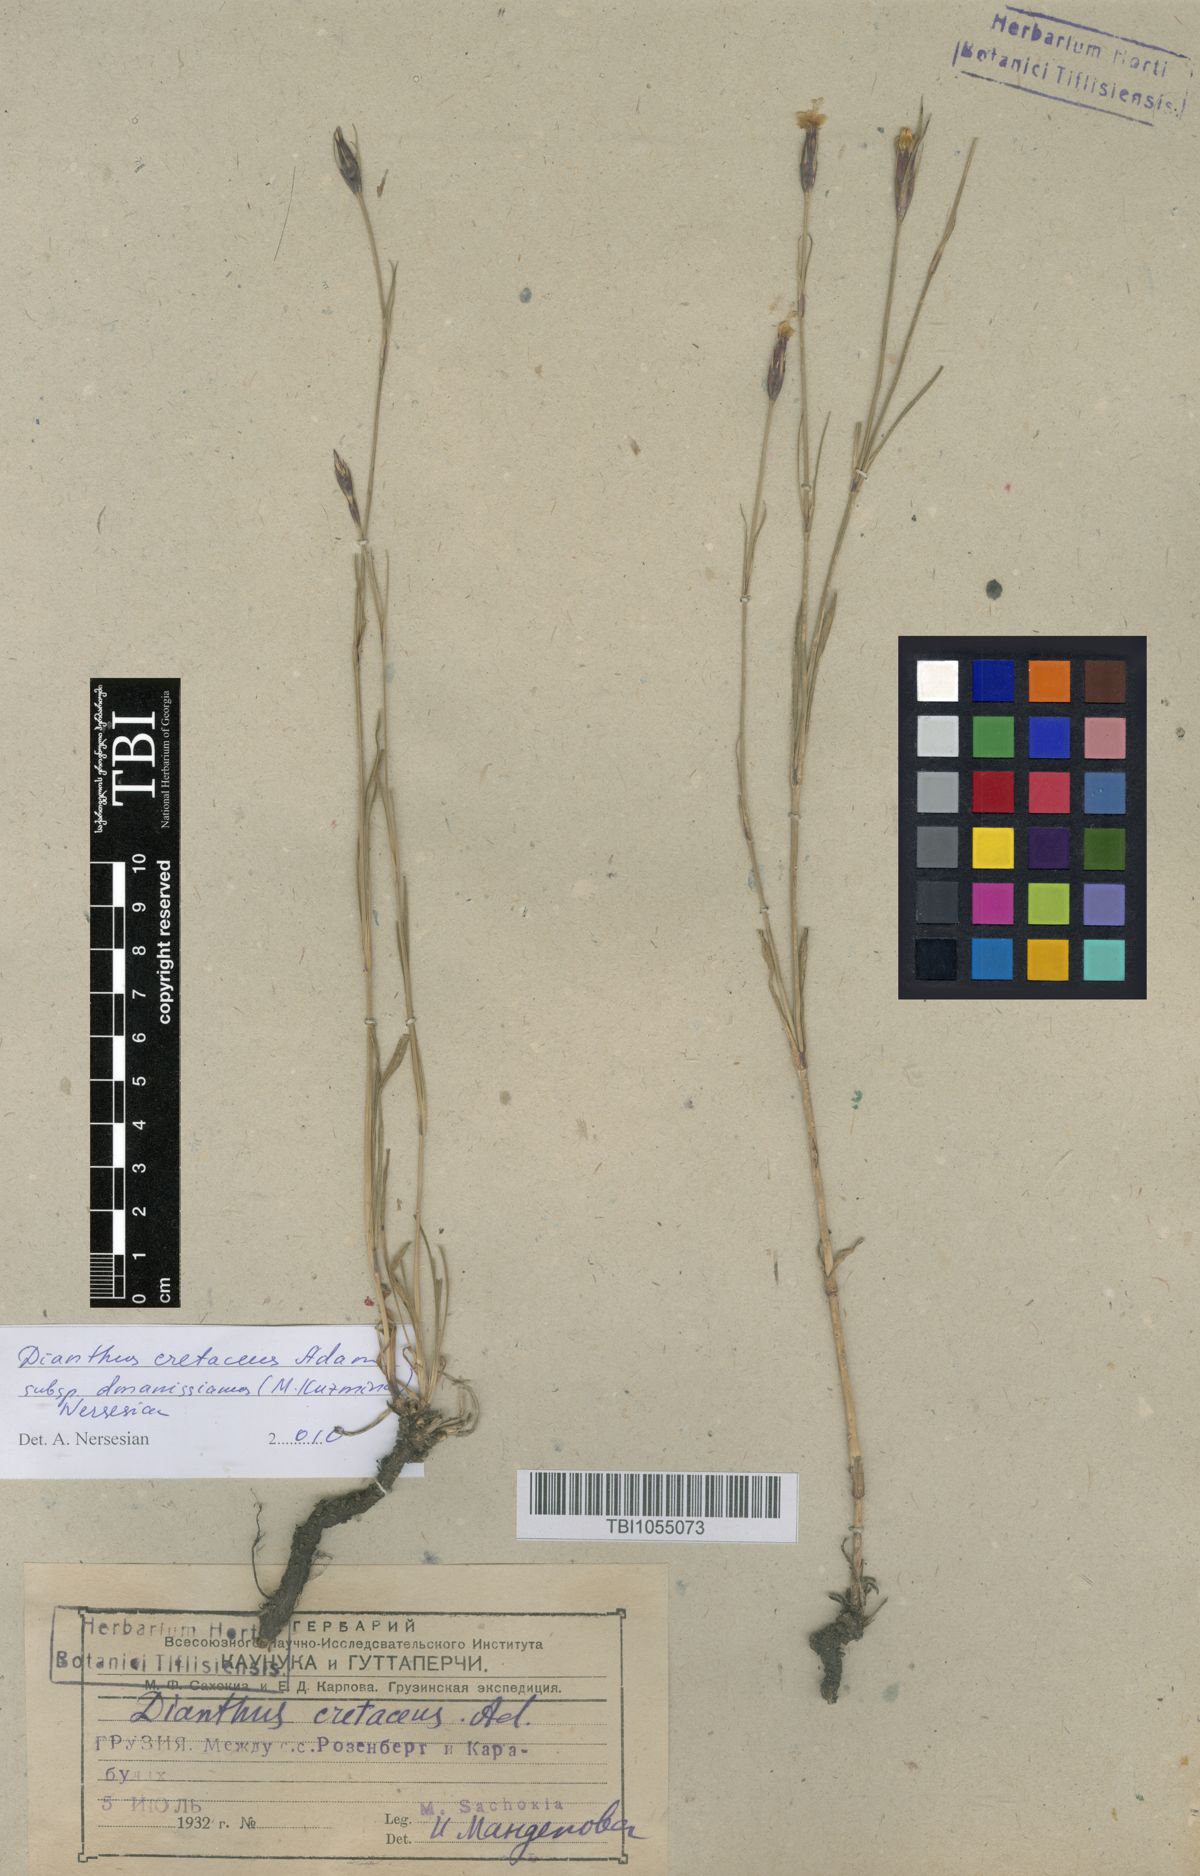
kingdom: Plantae
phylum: Tracheophyta
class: Magnoliopsida
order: Caryophyllales
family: Caryophyllaceae
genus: Dianthus
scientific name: Dianthus cretaceus
